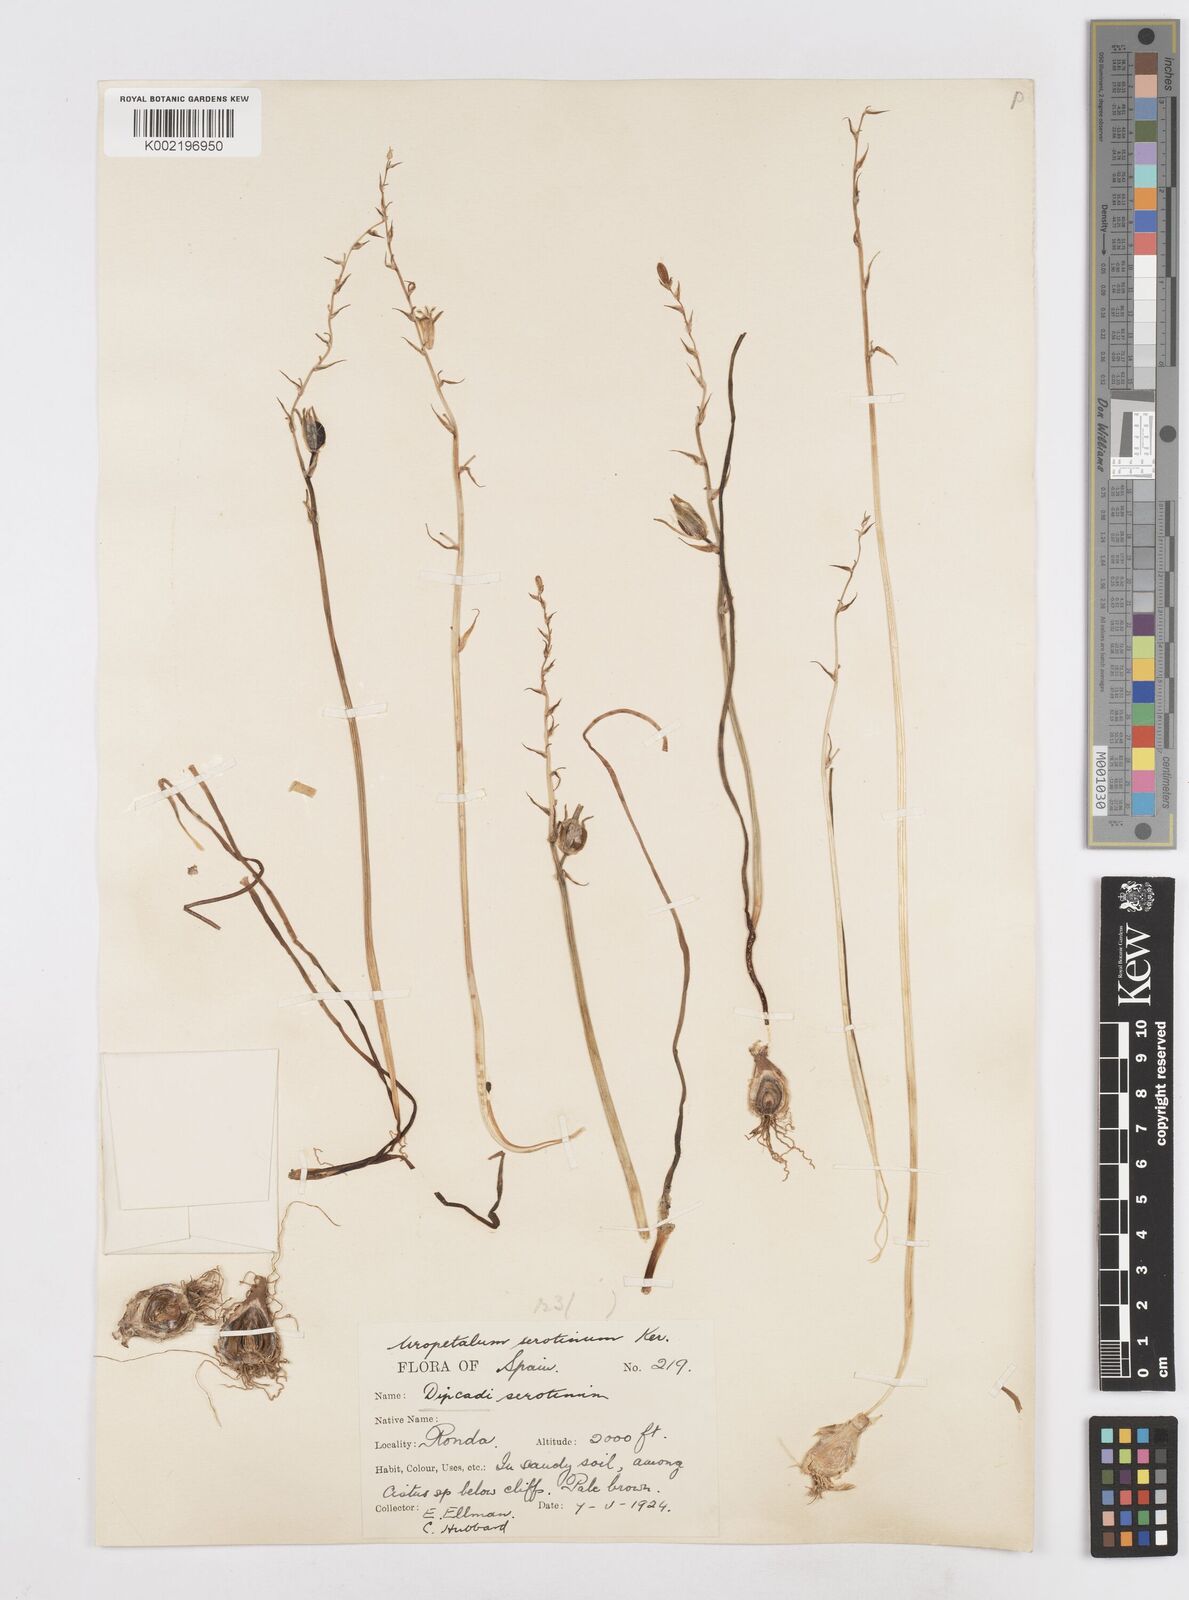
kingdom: Plantae
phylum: Tracheophyta
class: Liliopsida
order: Asparagales
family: Asparagaceae
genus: Dipcadi
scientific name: Dipcadi serotinum
